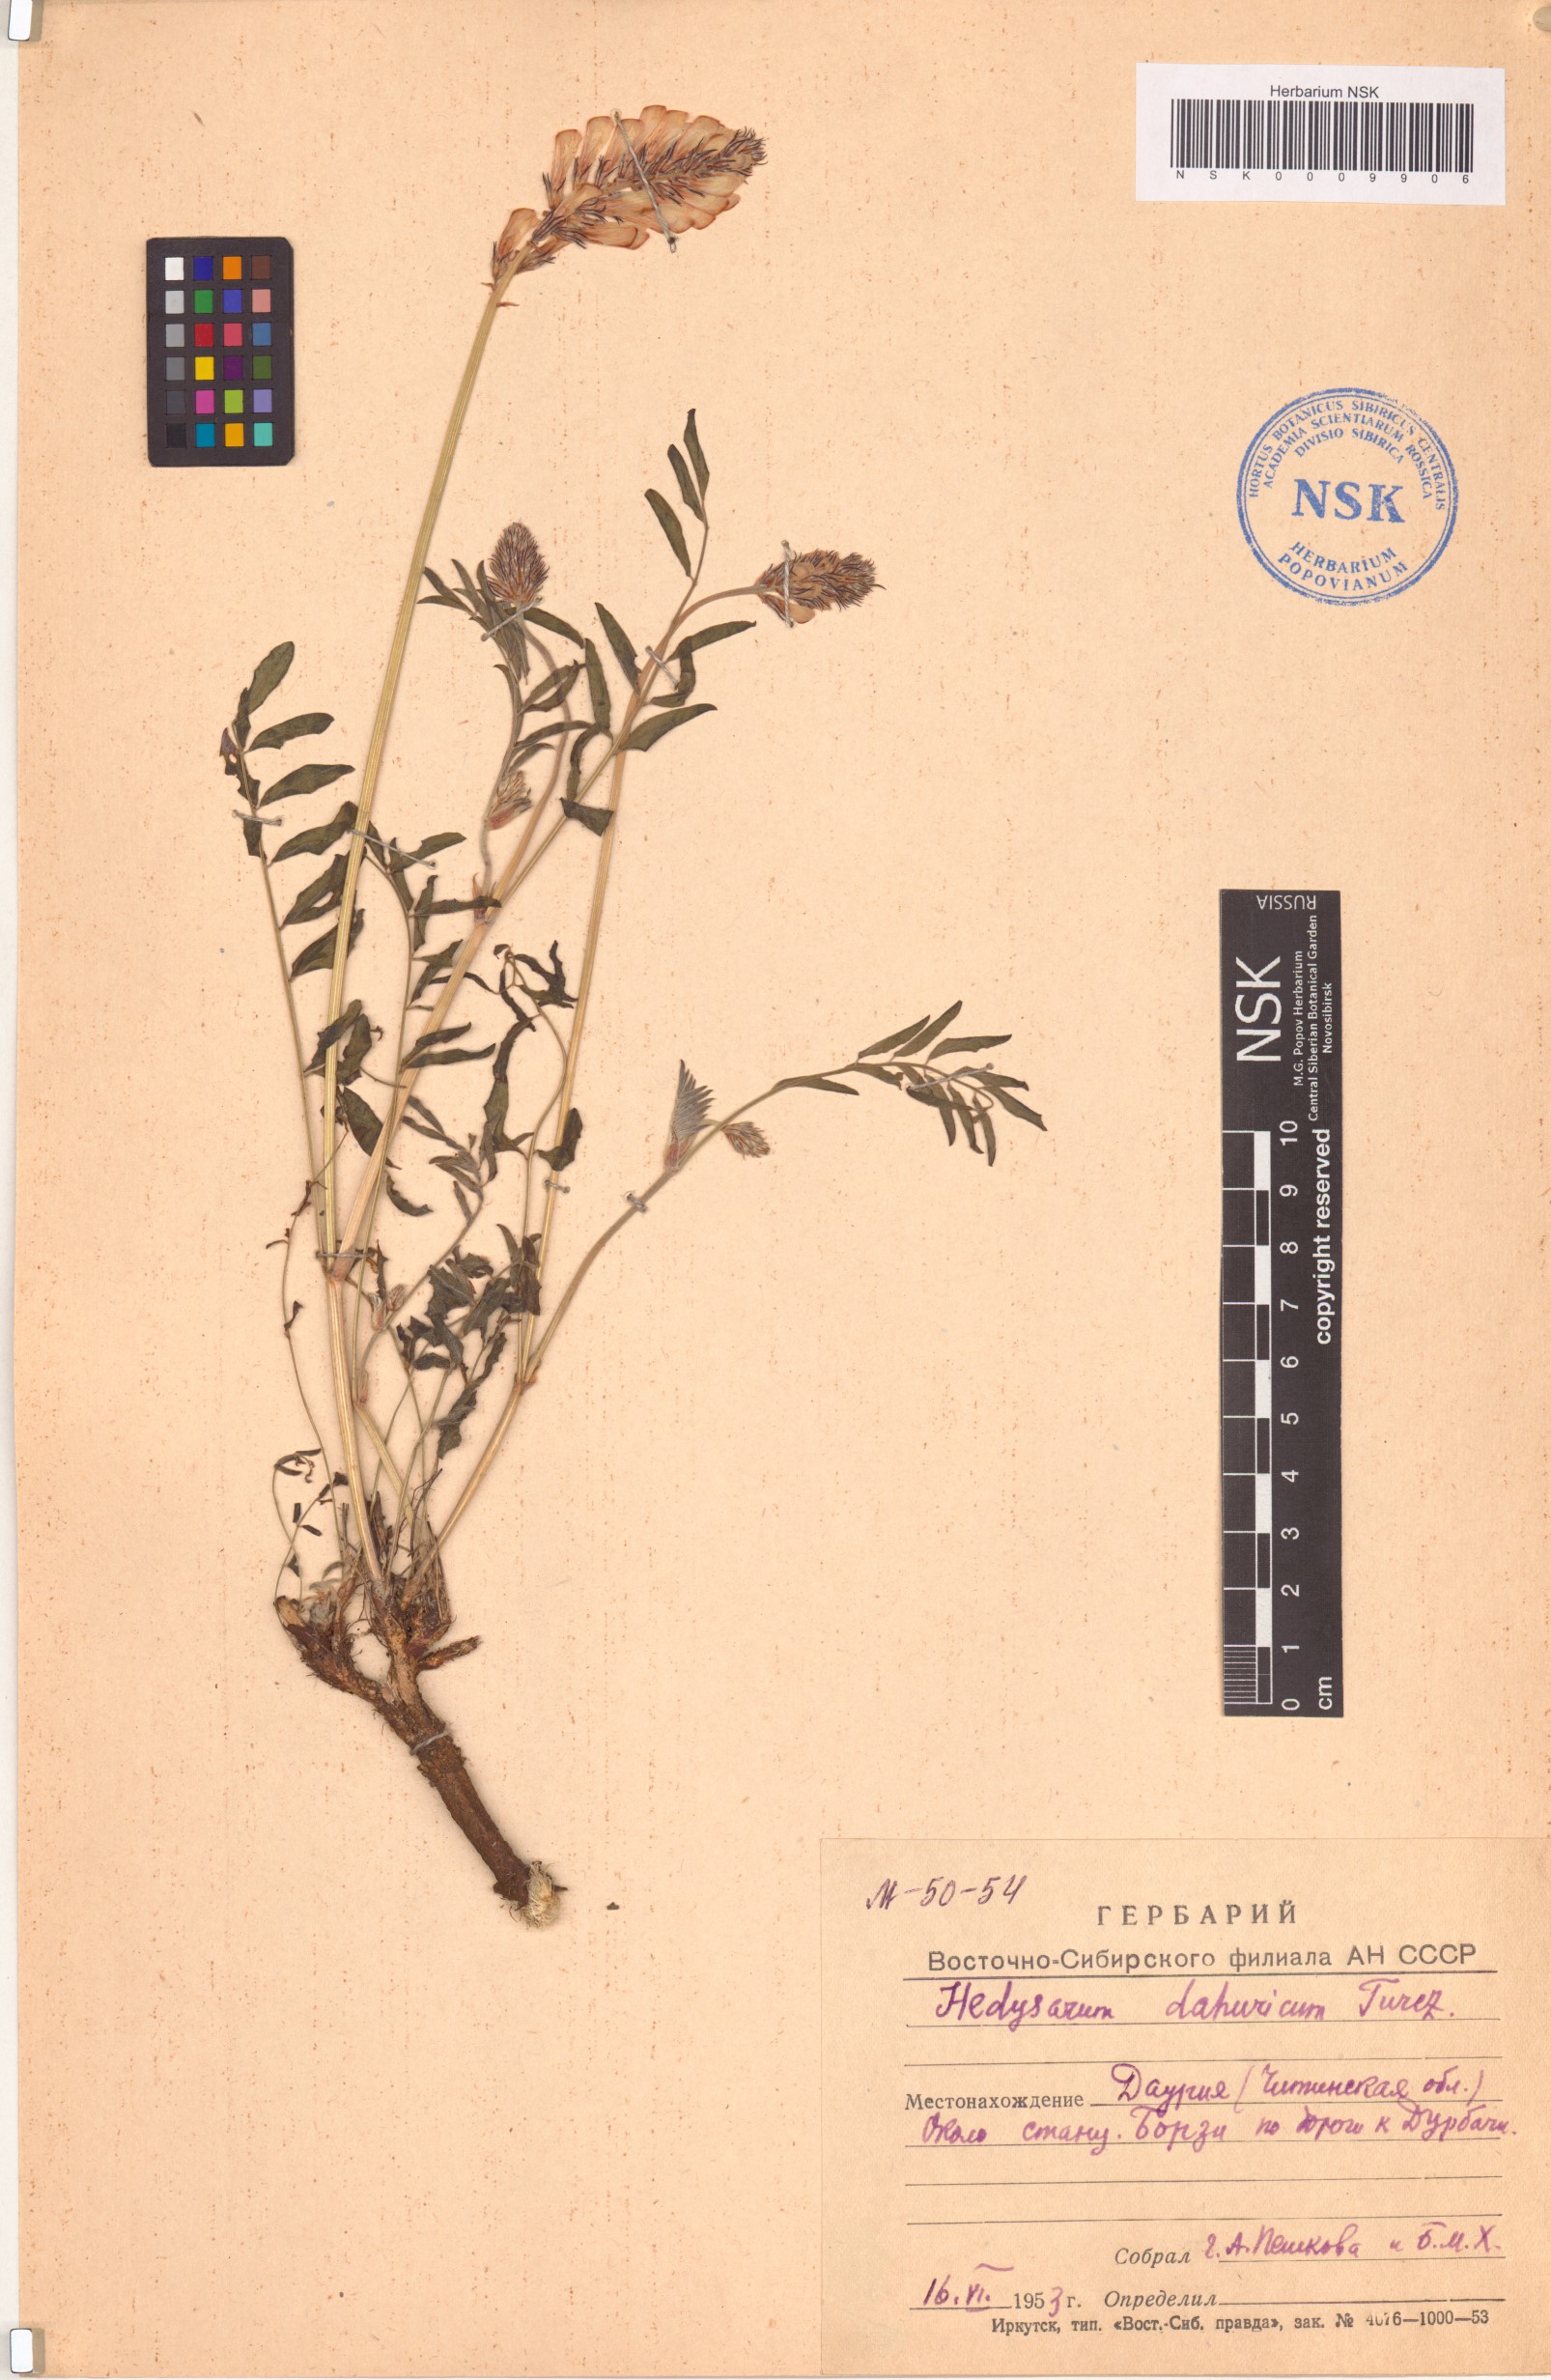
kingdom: Plantae
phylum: Tracheophyta
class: Magnoliopsida
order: Fabales
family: Fabaceae
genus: Hedysarum
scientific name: Hedysarum dahuricum
